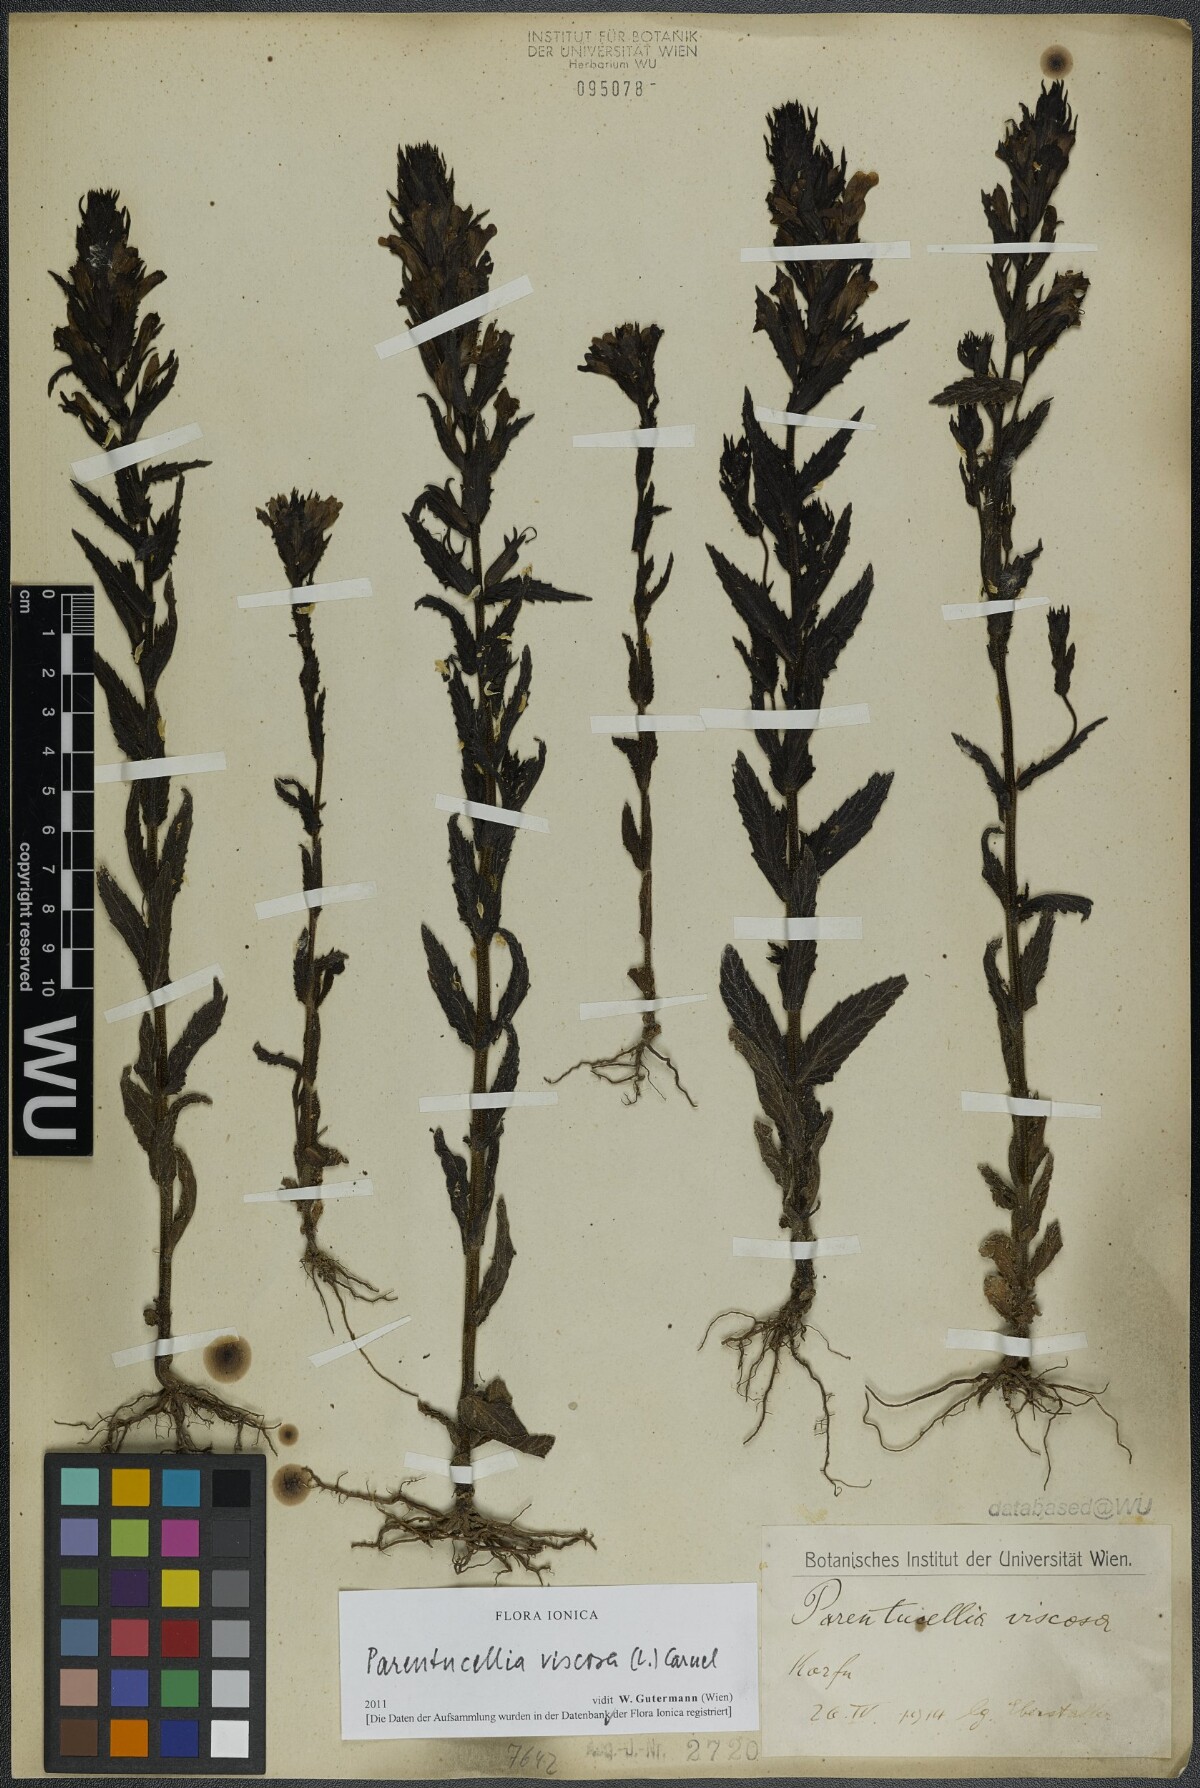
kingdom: Plantae
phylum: Tracheophyta
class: Magnoliopsida
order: Lamiales
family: Orobanchaceae
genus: Bellardia
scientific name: Bellardia viscosa
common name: Sticky parentucellia
